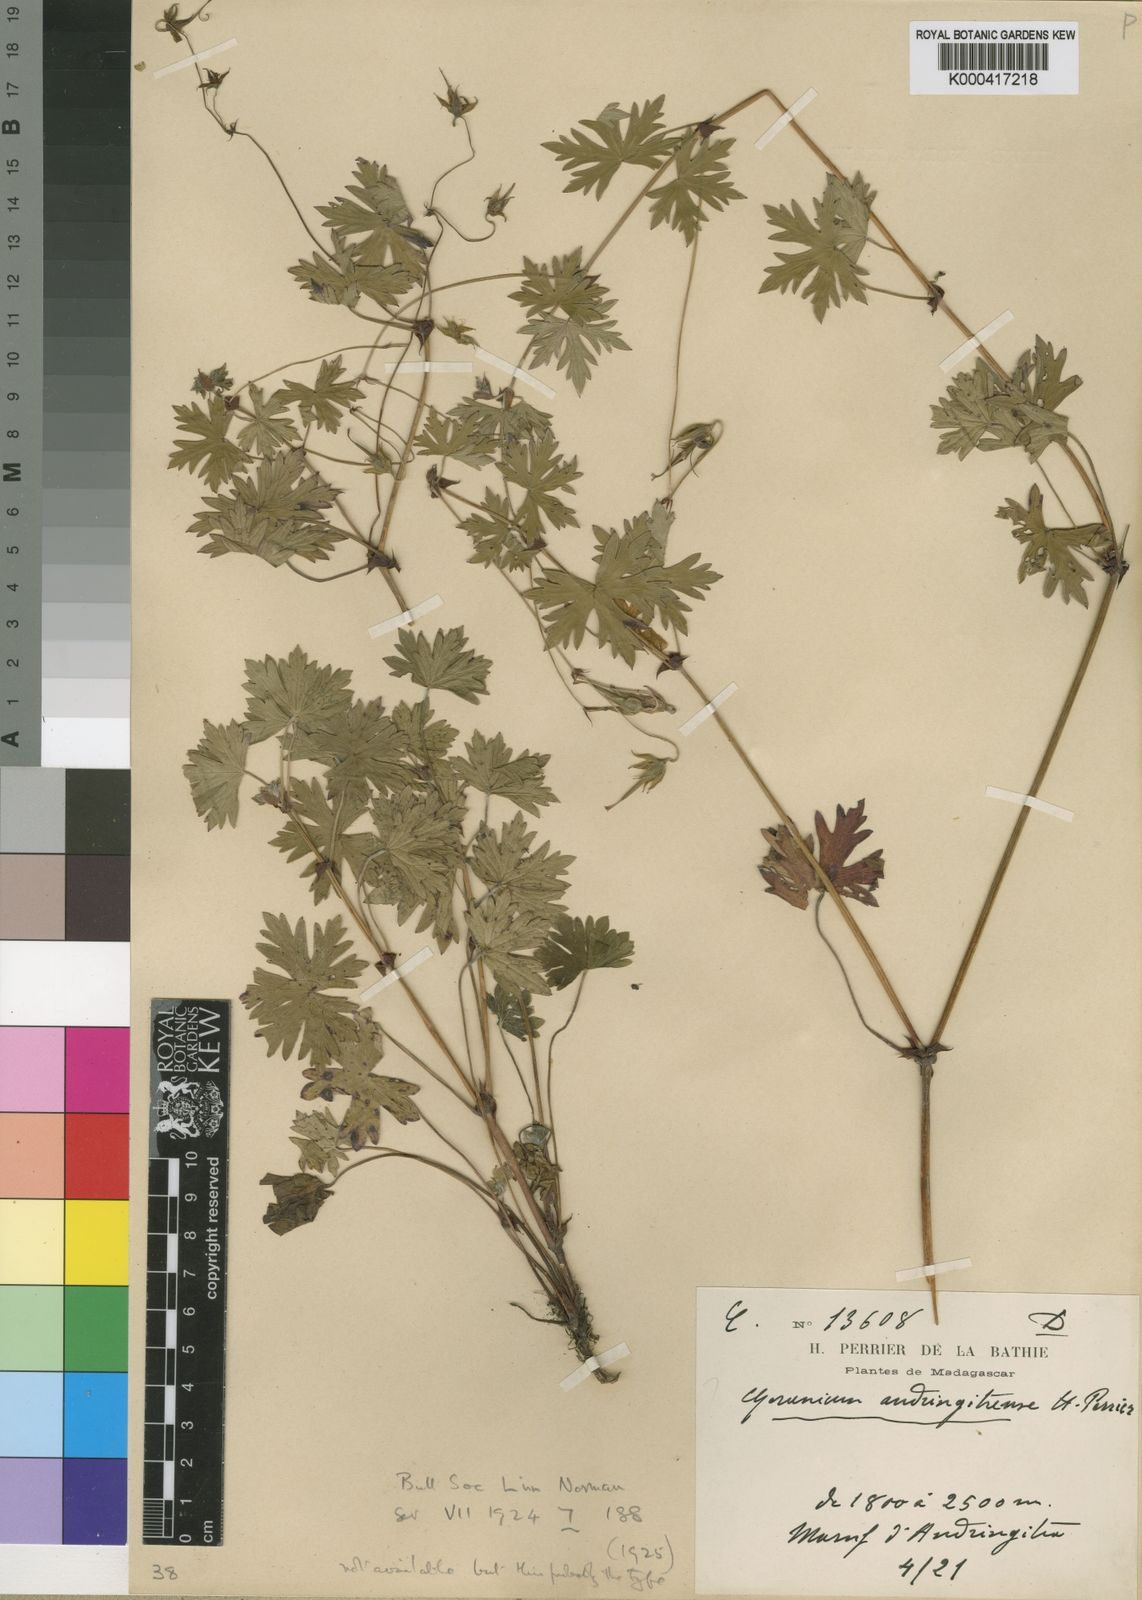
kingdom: Plantae
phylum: Tracheophyta
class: Magnoliopsida
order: Geraniales
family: Geraniaceae
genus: Geranium
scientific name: Geranium andringitrense
